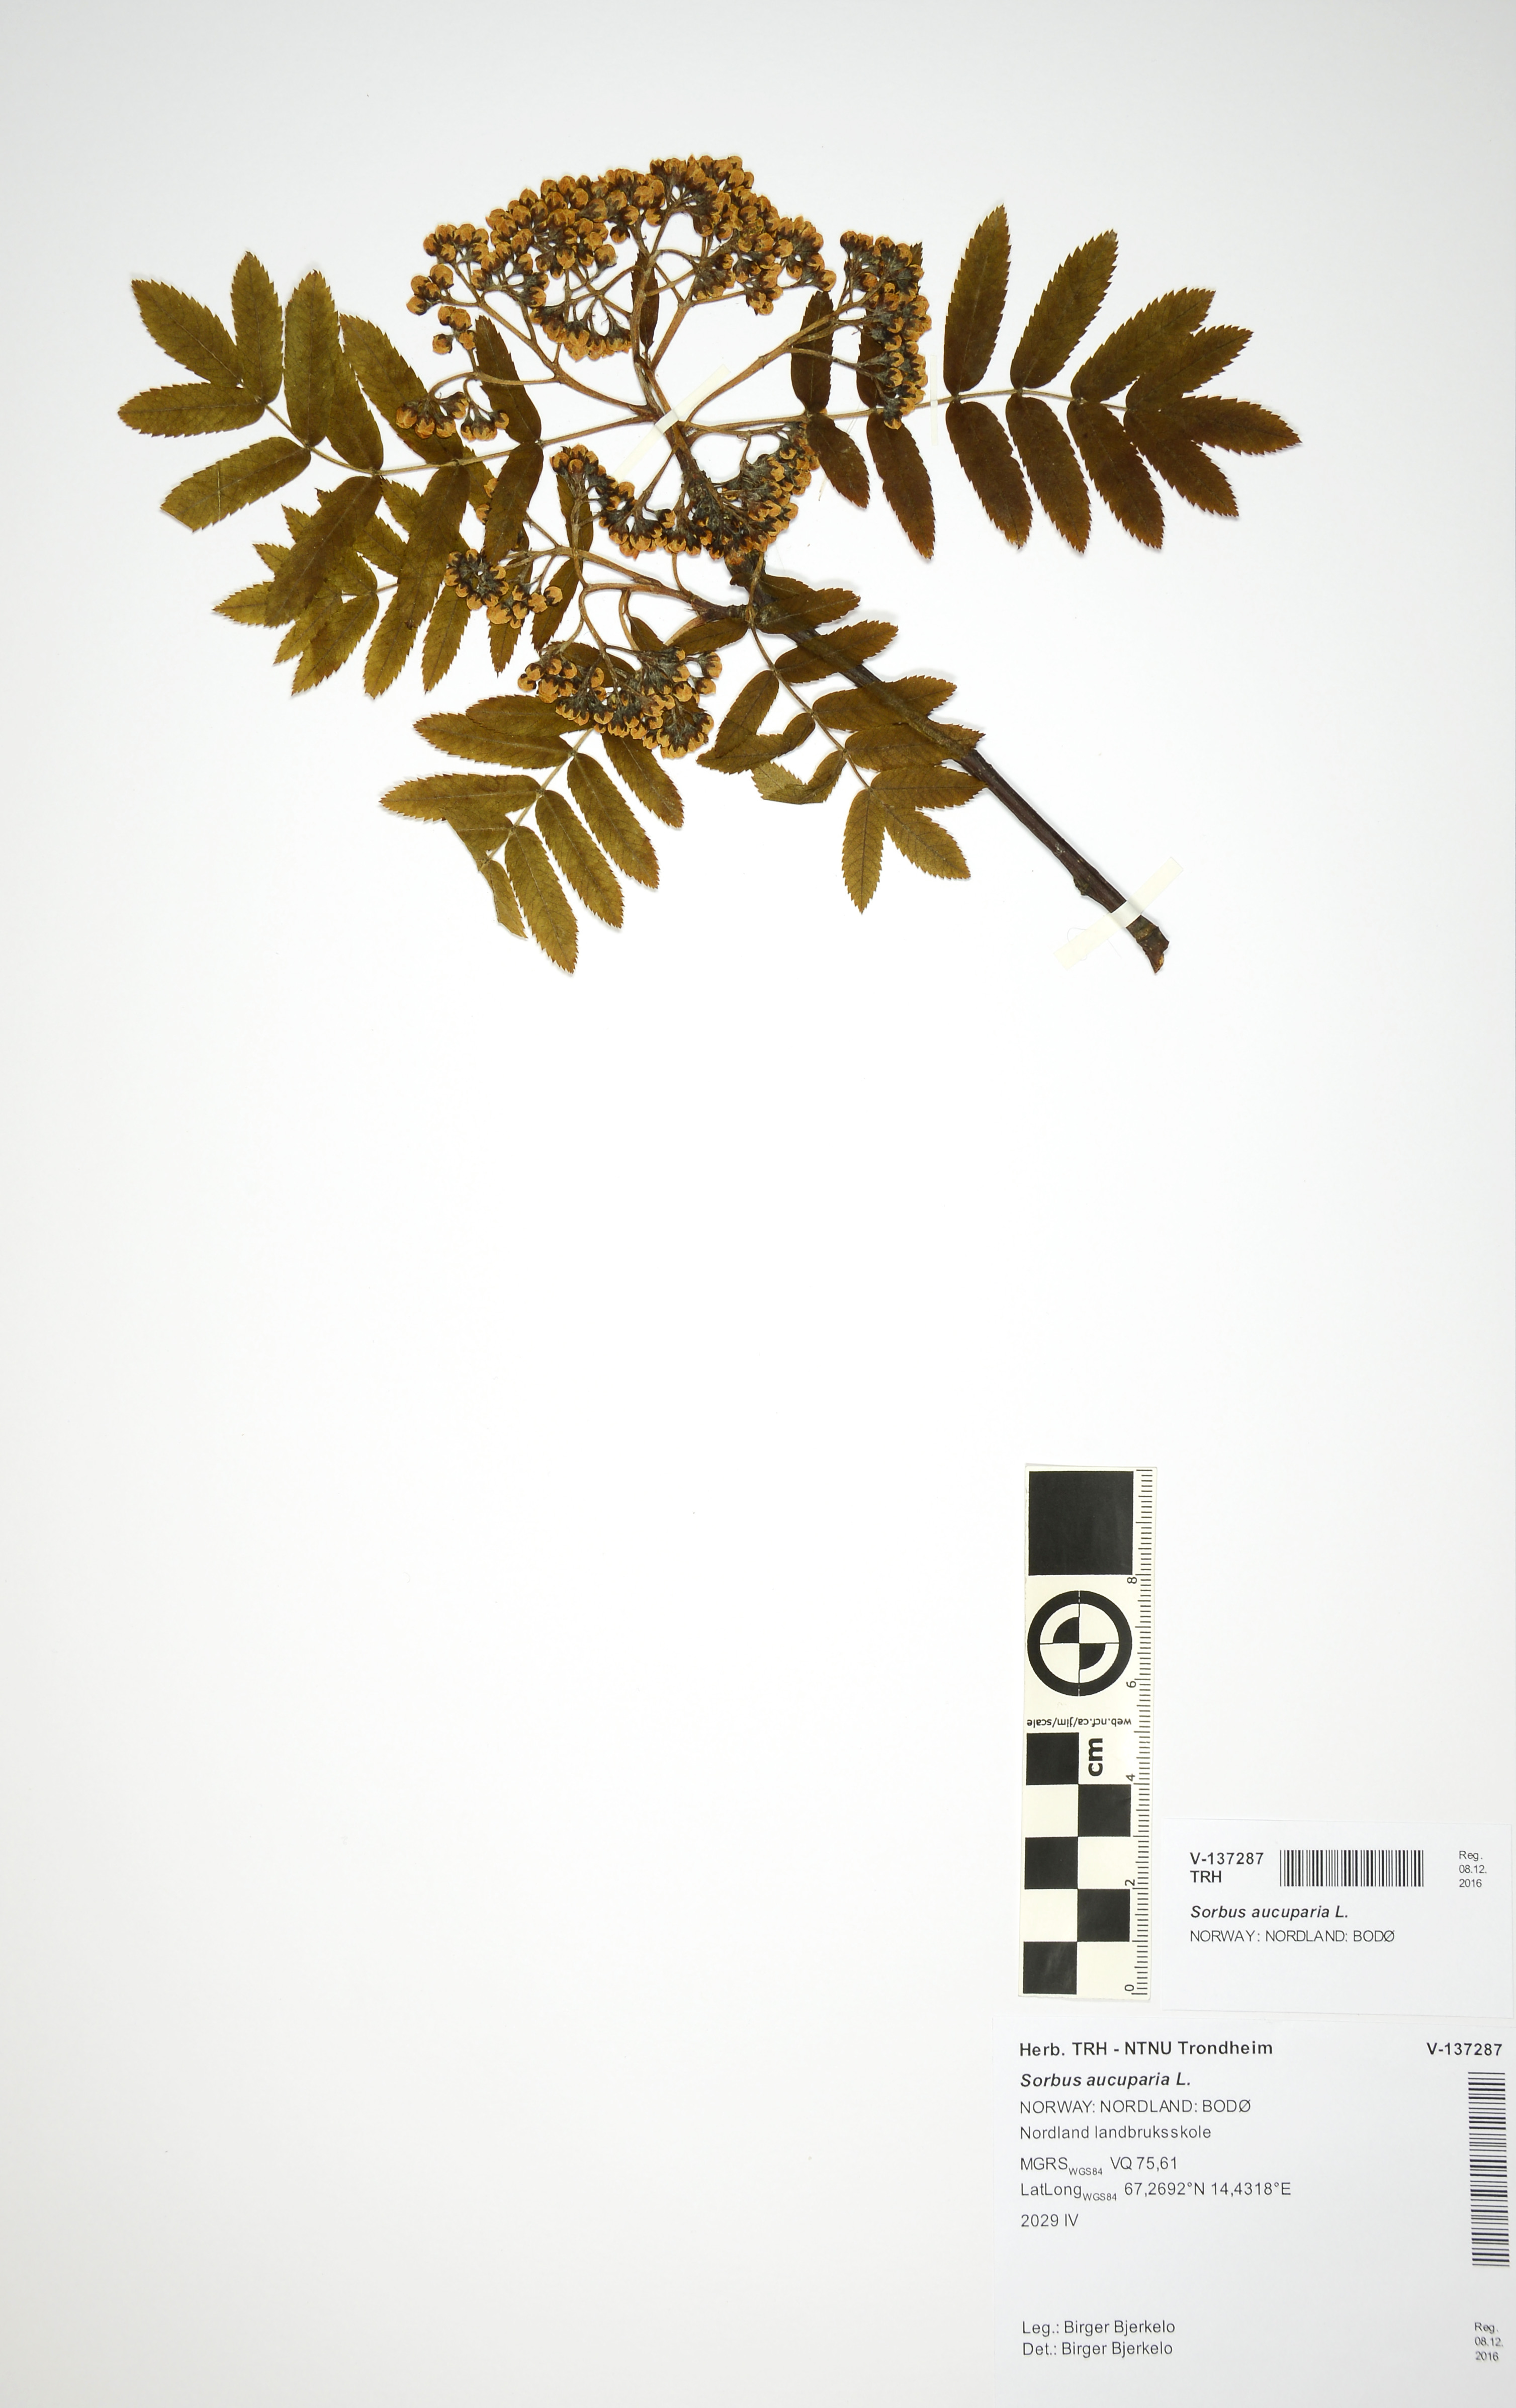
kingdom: Plantae
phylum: Tracheophyta
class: Magnoliopsida
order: Rosales
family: Rosaceae
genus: Sorbus
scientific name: Sorbus aucuparia
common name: Rowan
